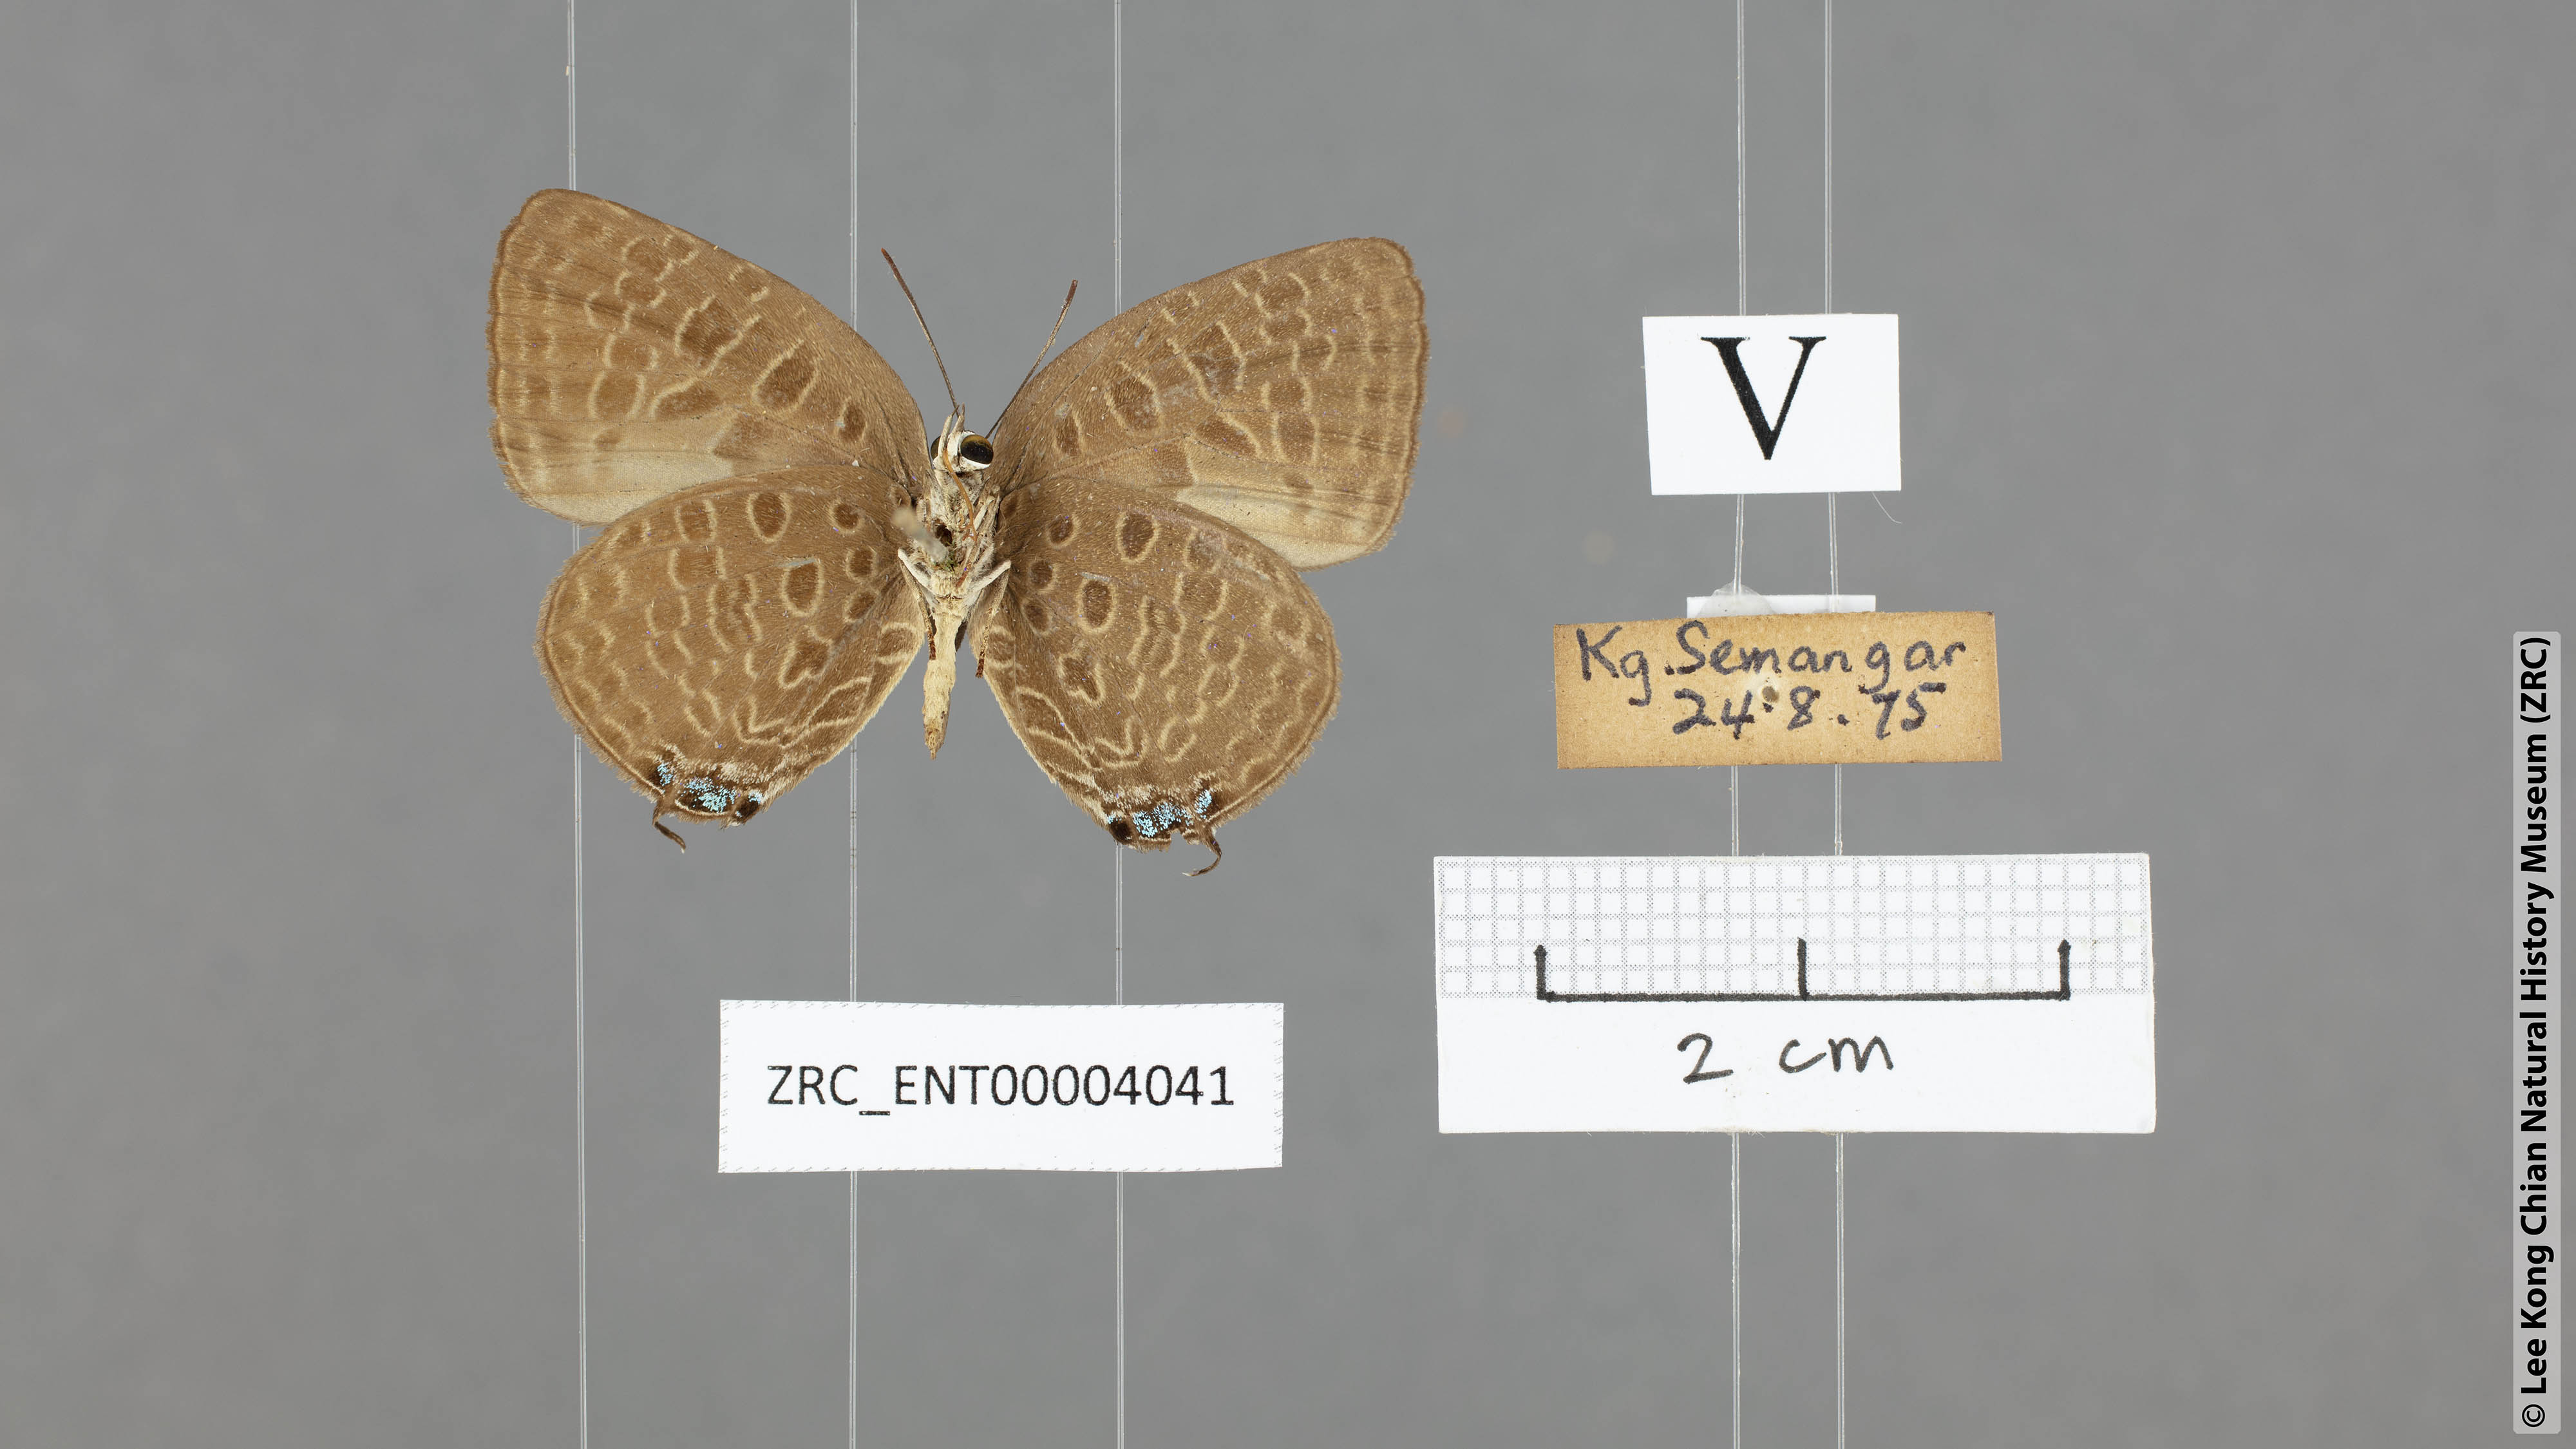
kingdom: Animalia
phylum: Arthropoda
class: Insecta
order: Lepidoptera
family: Lycaenidae
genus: Arhopala
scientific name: Arhopala pseudomuta
